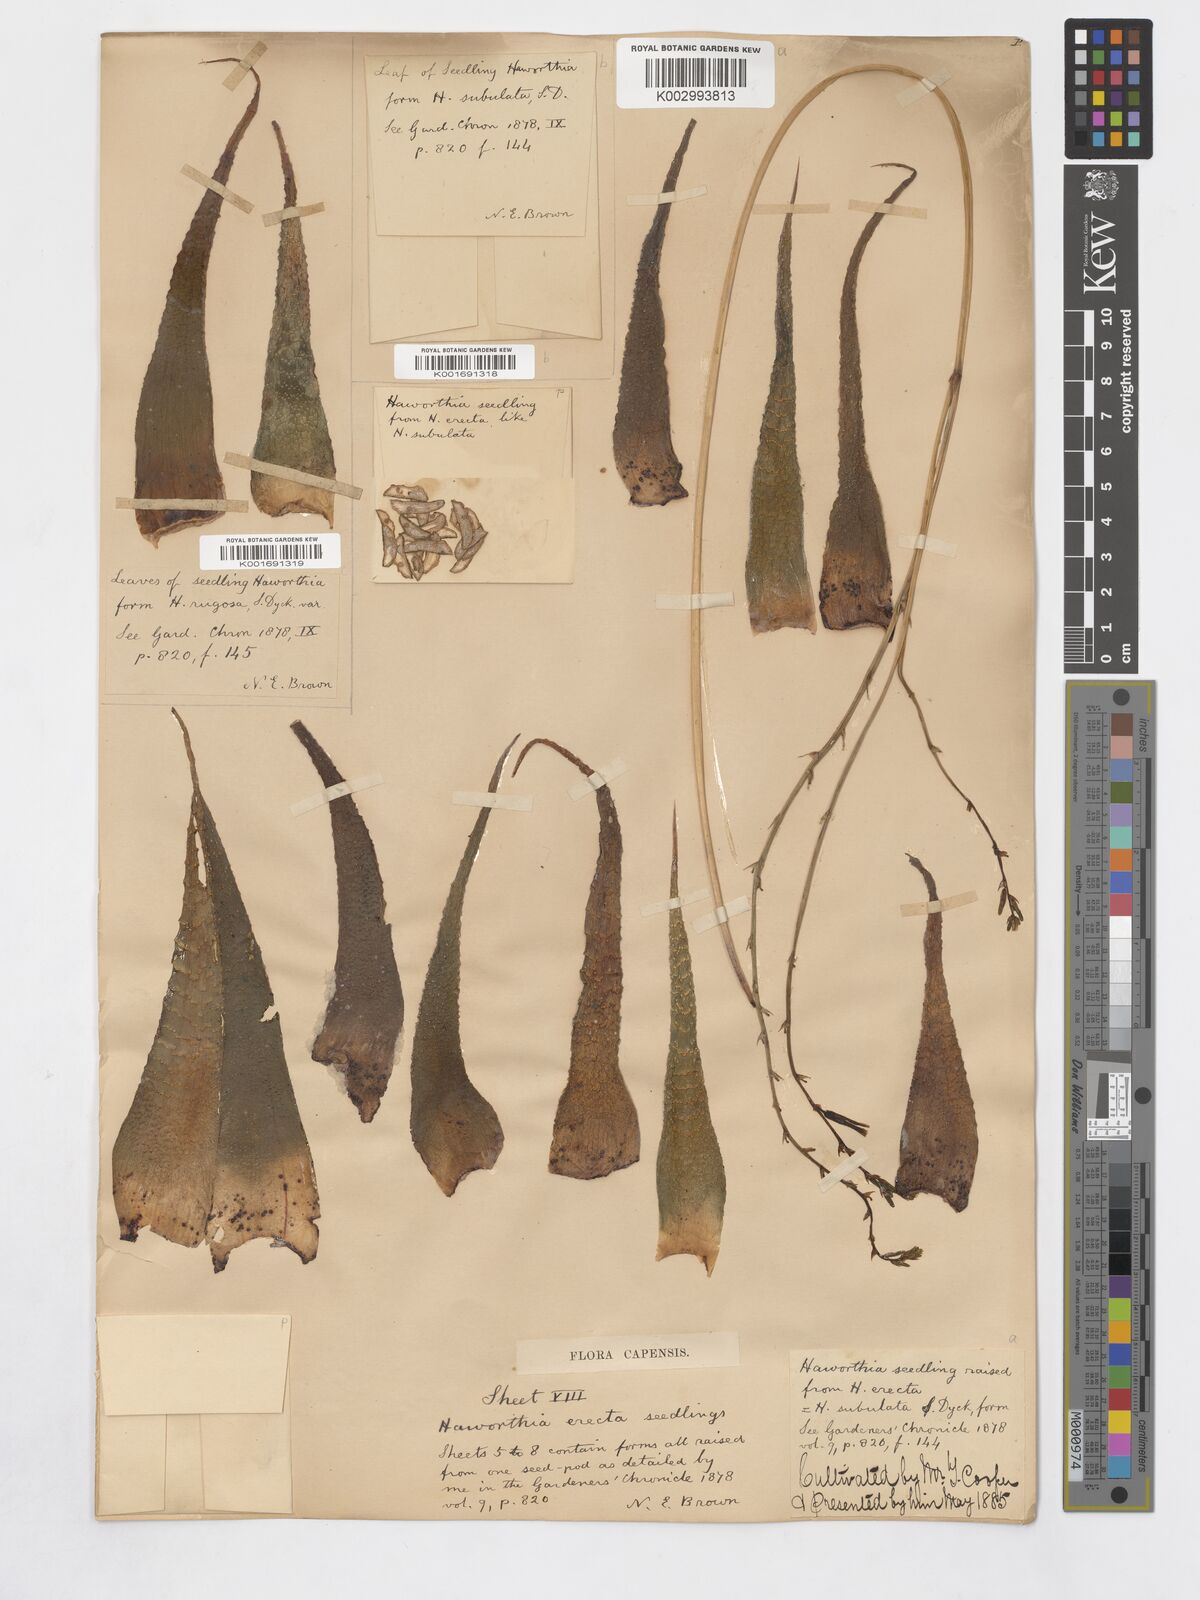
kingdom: Plantae
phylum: Tracheophyta
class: Liliopsida
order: Asparagales
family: Asphodelaceae
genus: Haworthiopsis
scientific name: Haworthiopsis attenuata
